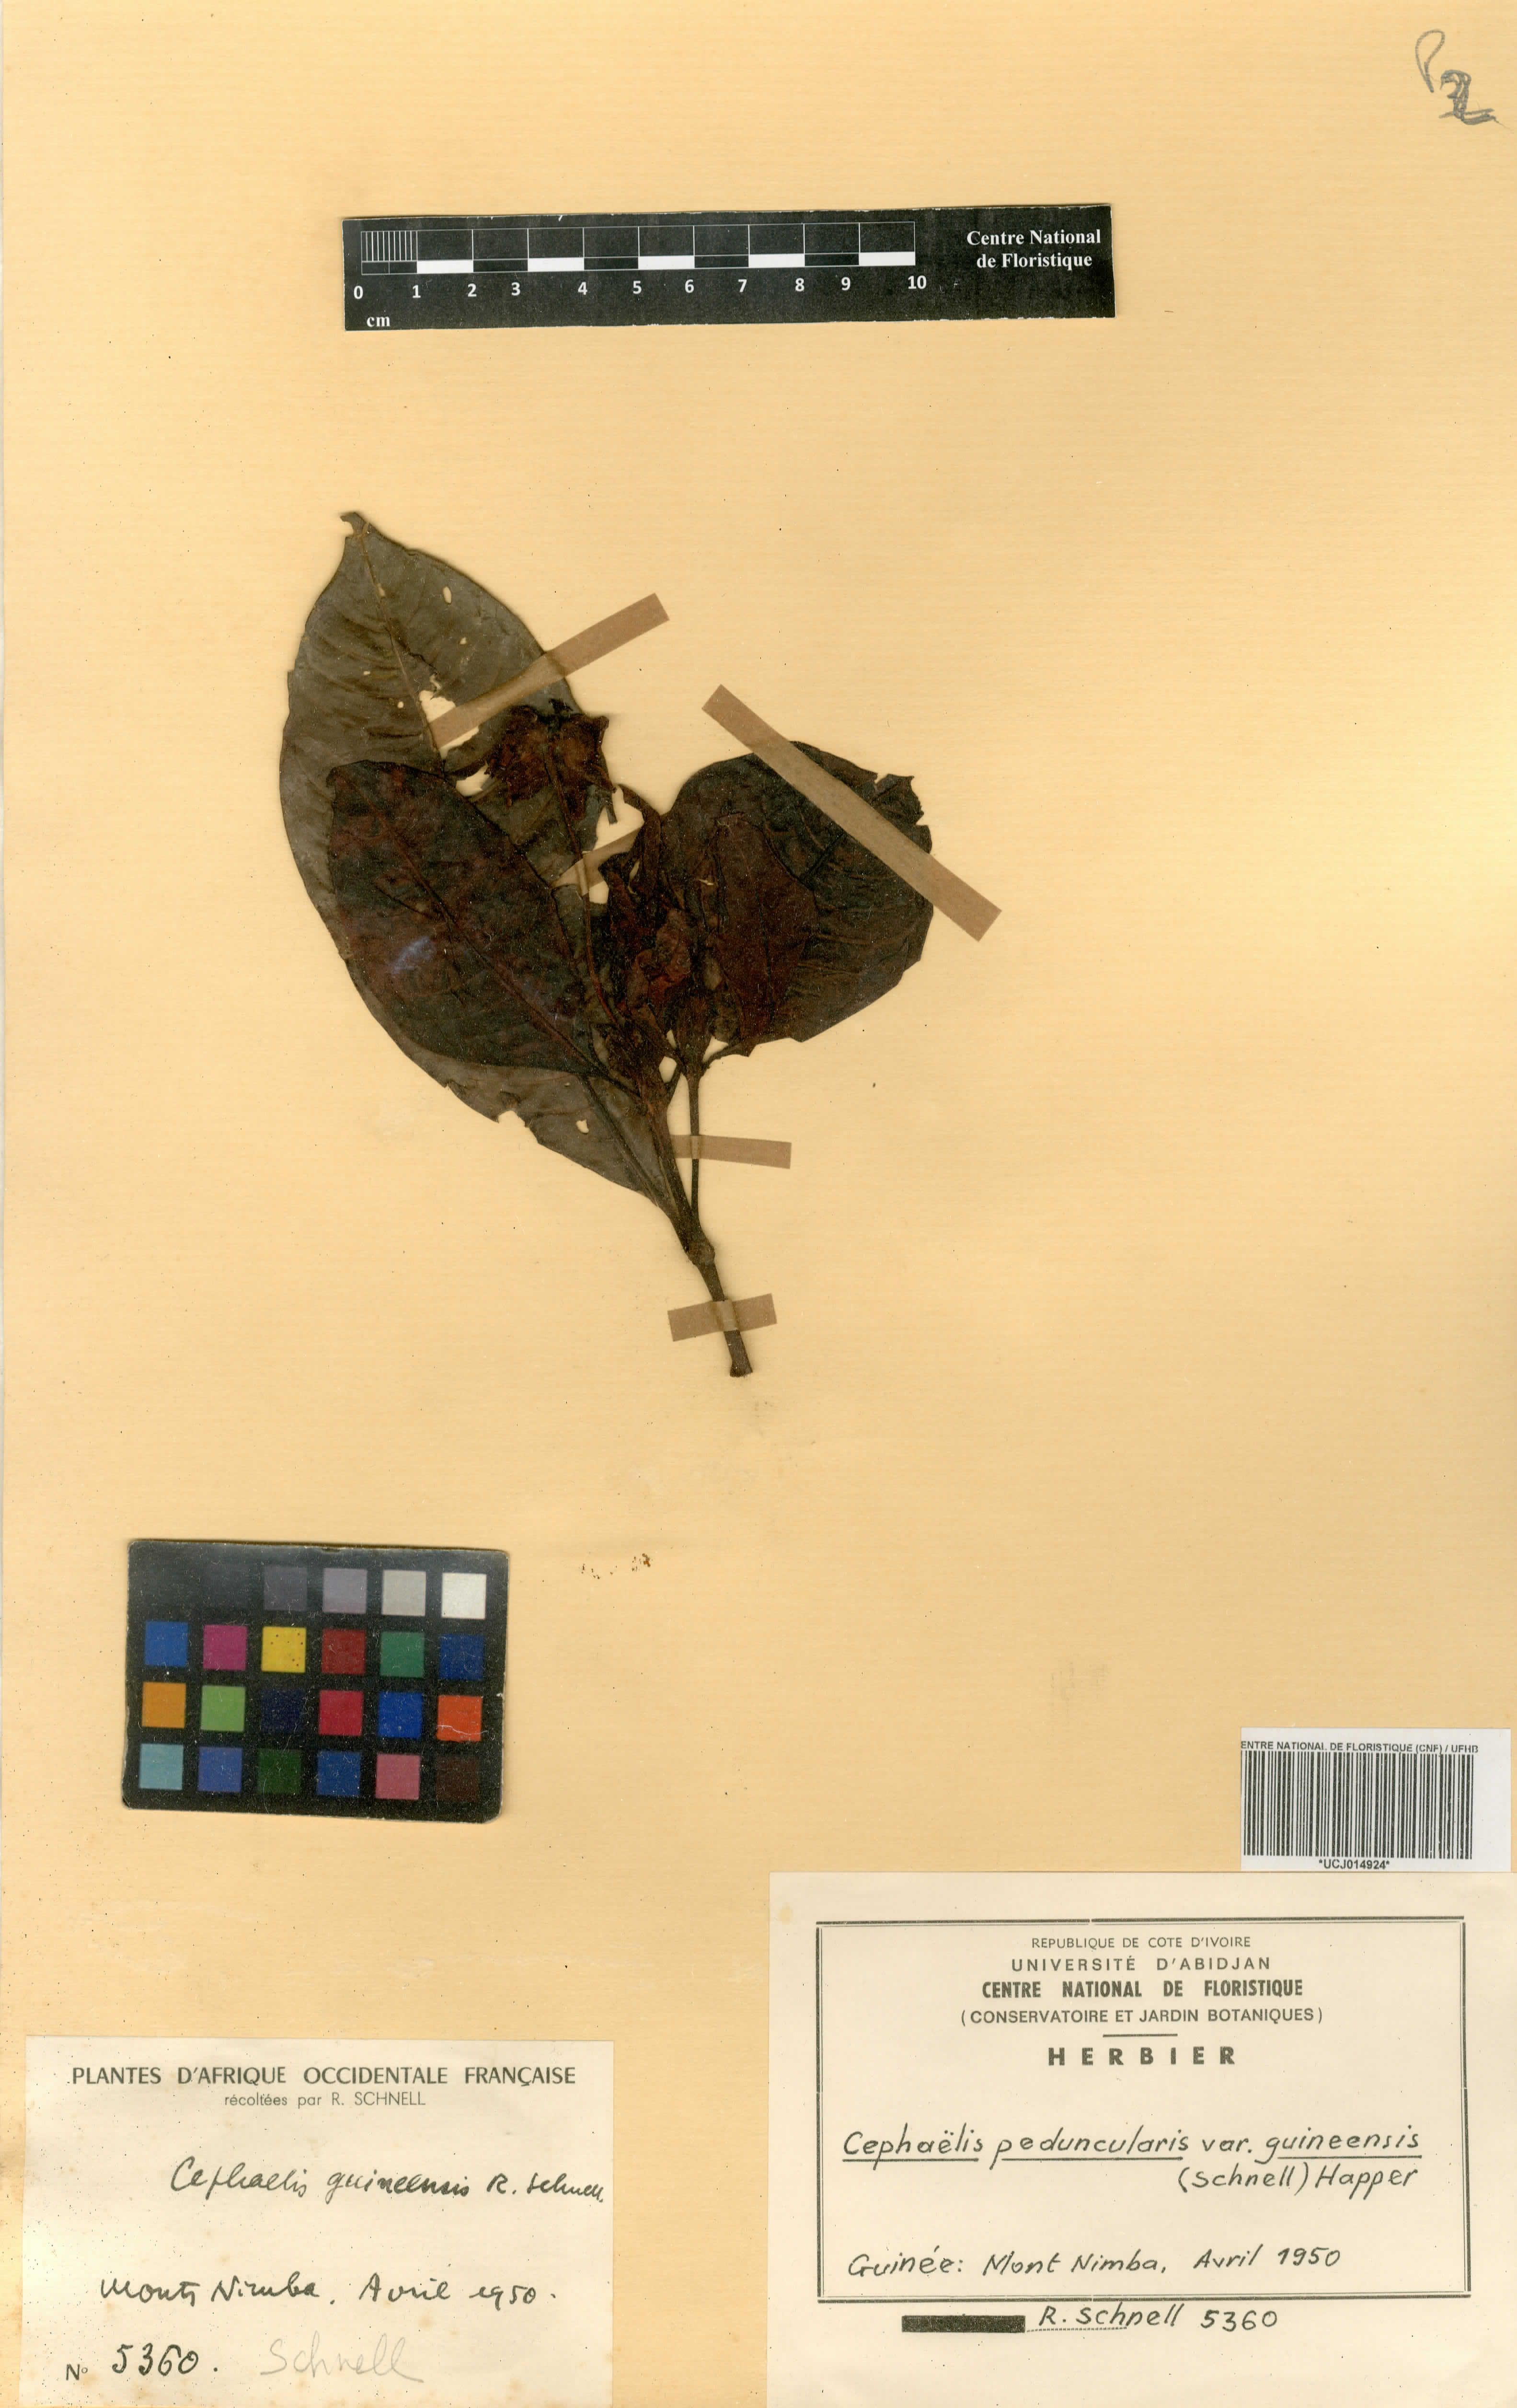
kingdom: Plantae
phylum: Tracheophyta
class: Magnoliopsida
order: Gentianales
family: Rubiaceae
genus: Psychotria
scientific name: Psychotria peduncularis
